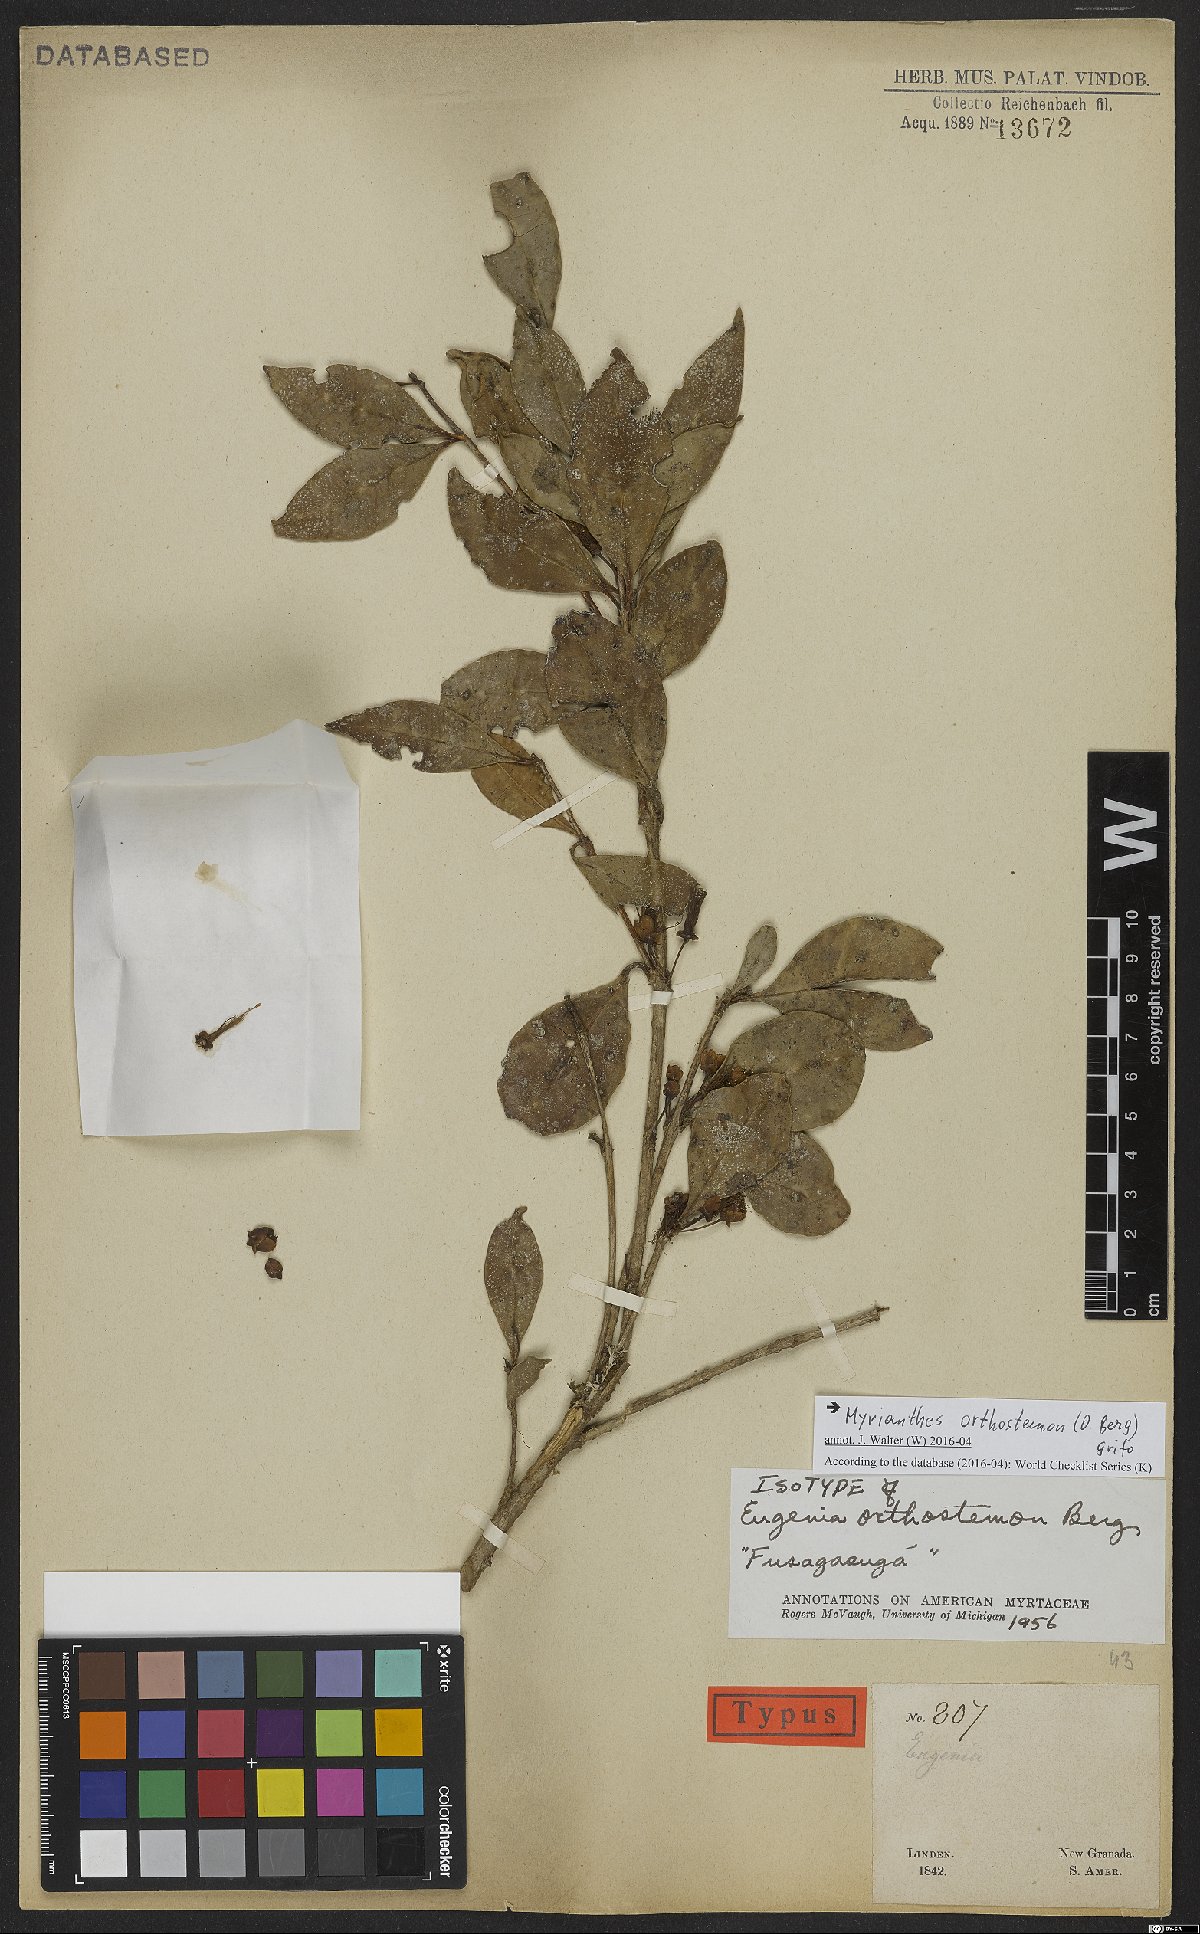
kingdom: Plantae
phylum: Tracheophyta
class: Magnoliopsida
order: Myrtales
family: Myrtaceae
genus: Myrcianthes
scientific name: Myrcianthes orthostemon
